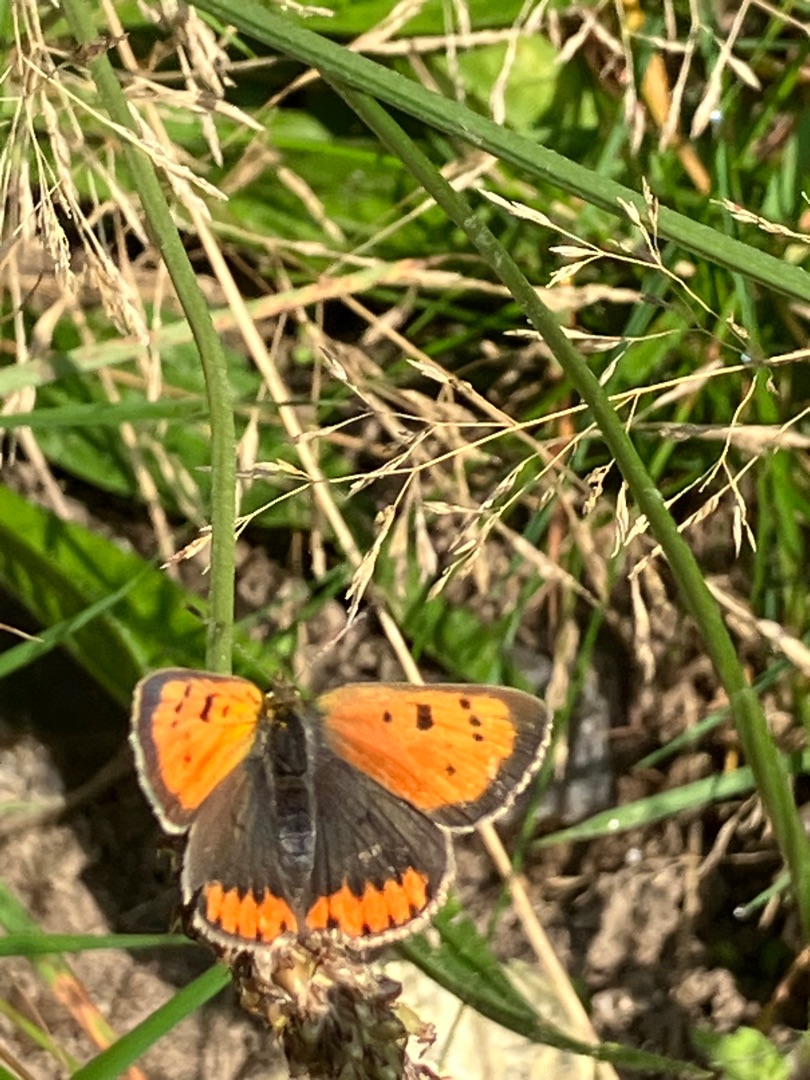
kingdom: Animalia
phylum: Arthropoda
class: Insecta
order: Lepidoptera
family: Lycaenidae
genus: Lycaena
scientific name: Lycaena phlaeas
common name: Lille ildfugl
